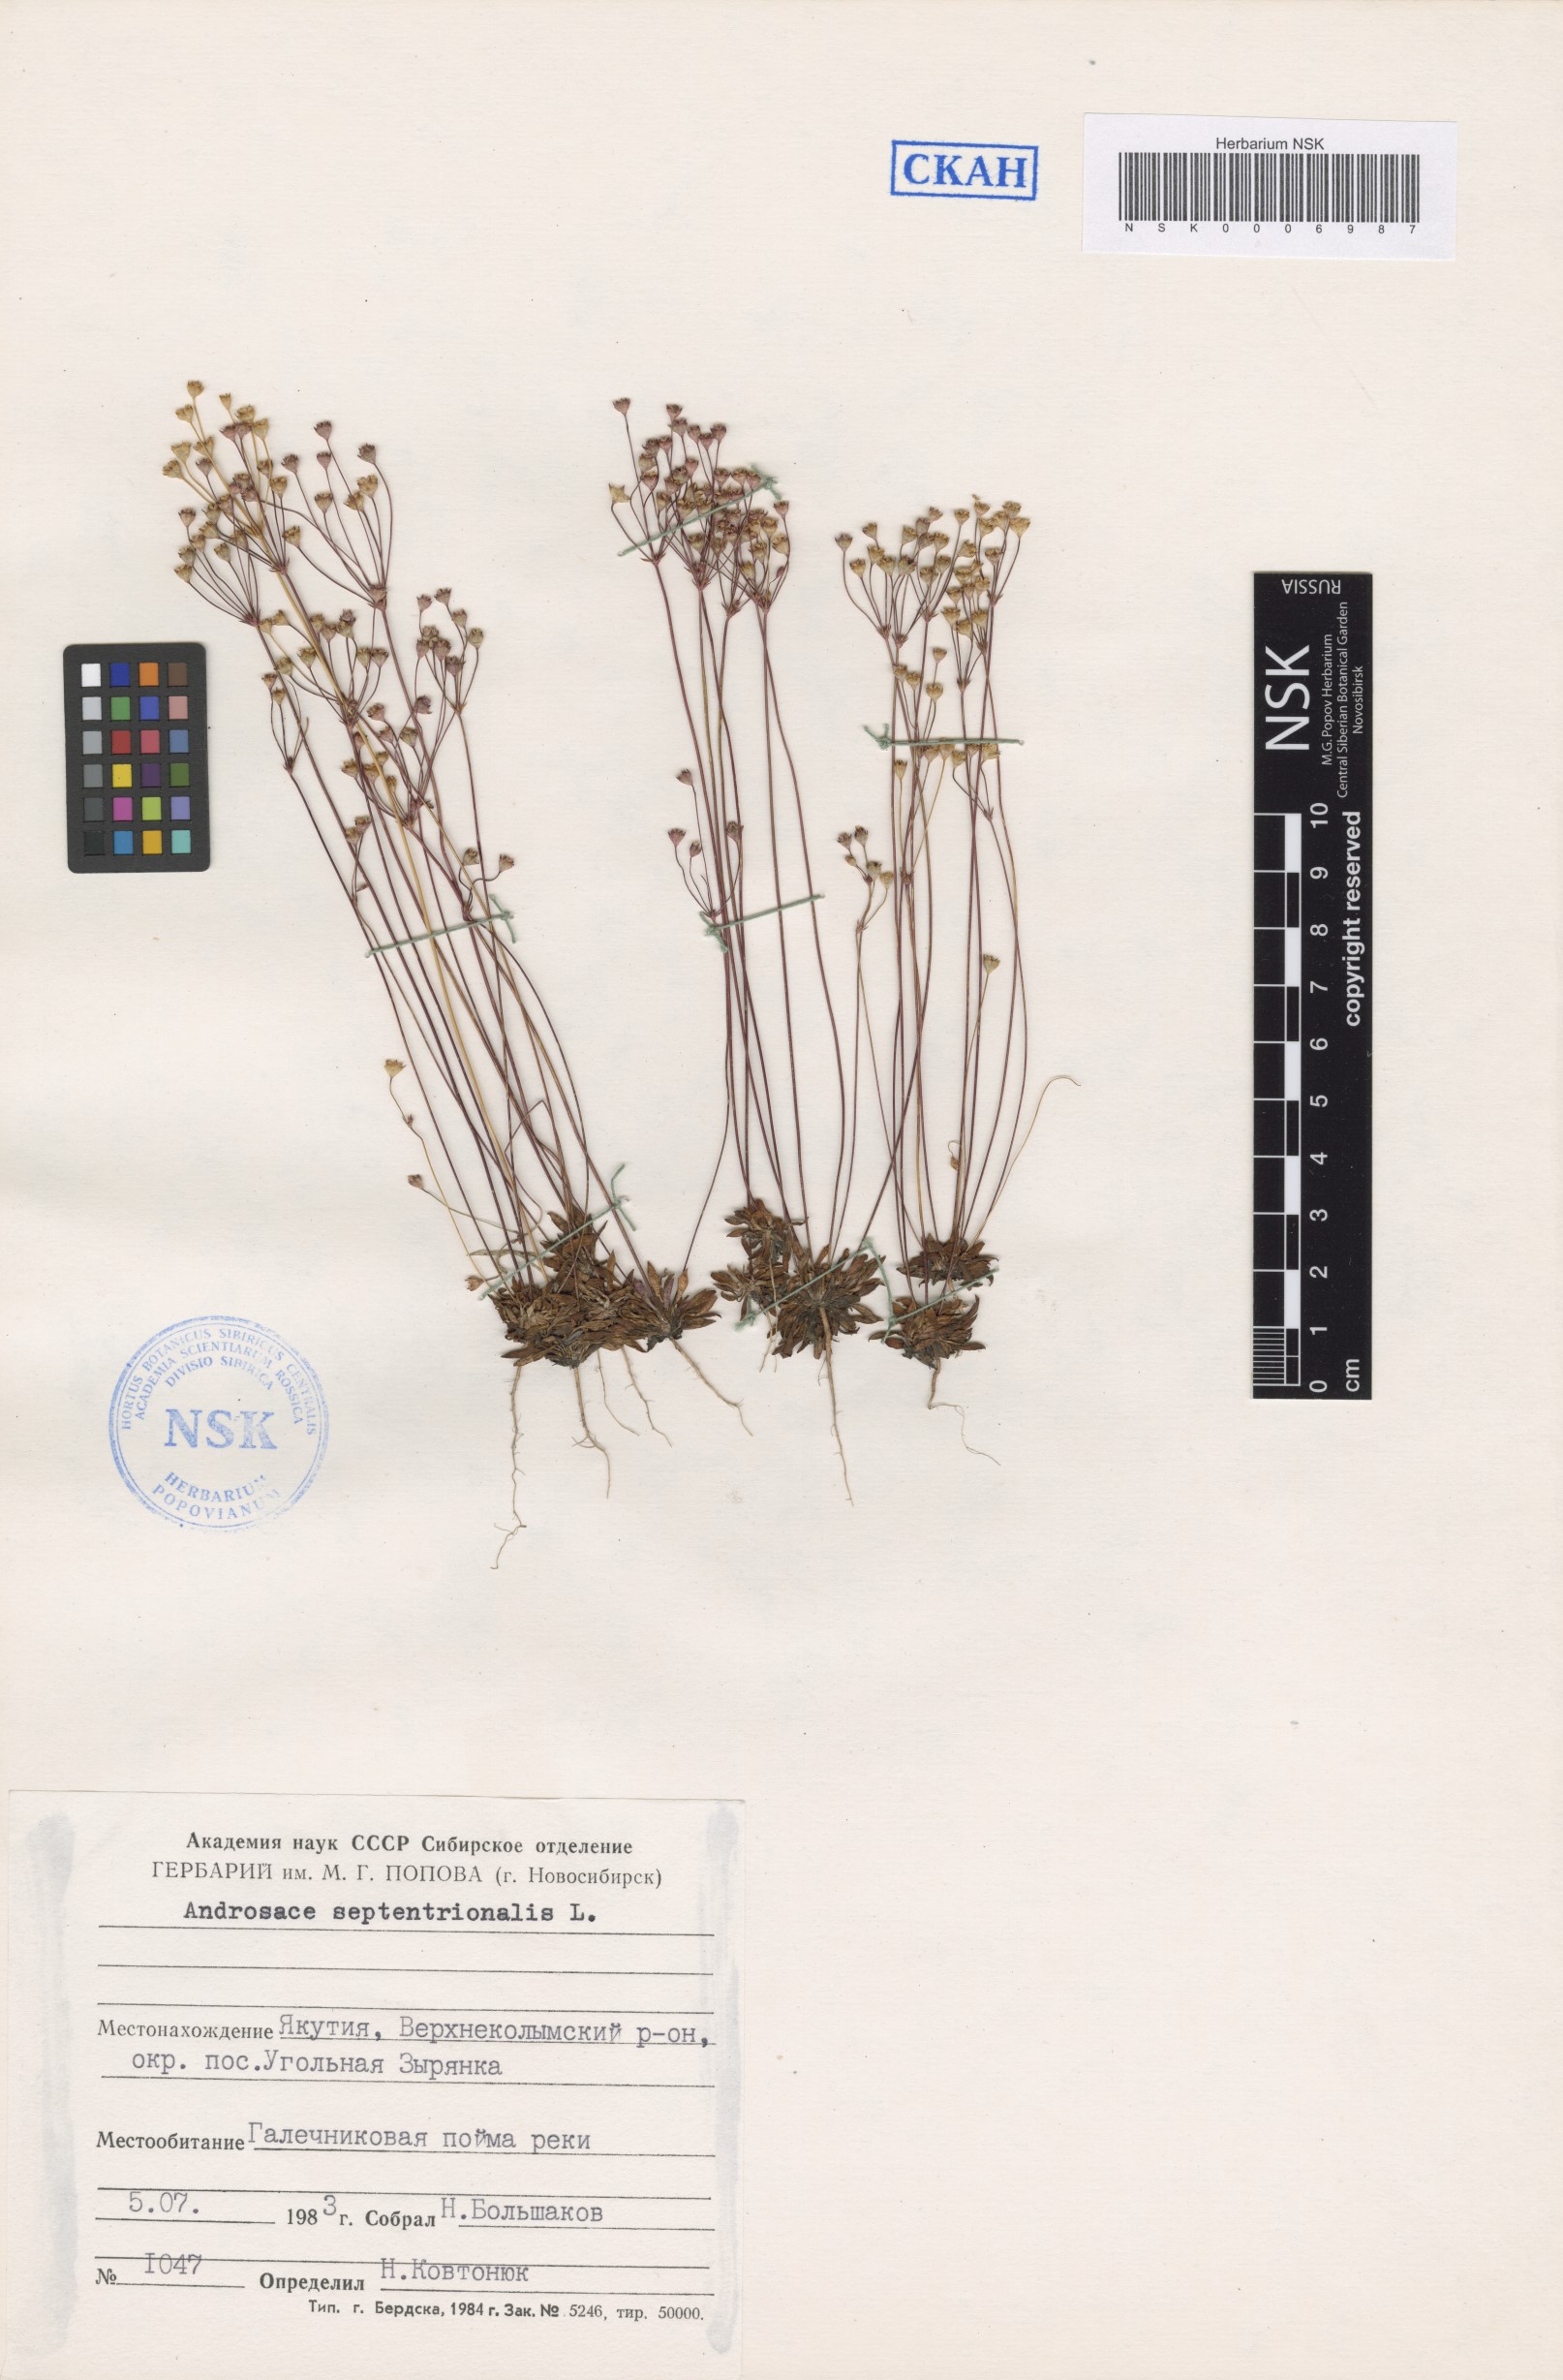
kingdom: Plantae
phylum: Tracheophyta
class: Magnoliopsida
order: Ericales
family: Primulaceae
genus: Androsace
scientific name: Androsace septentrionalis
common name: Hairy northern fairy-candelabra
